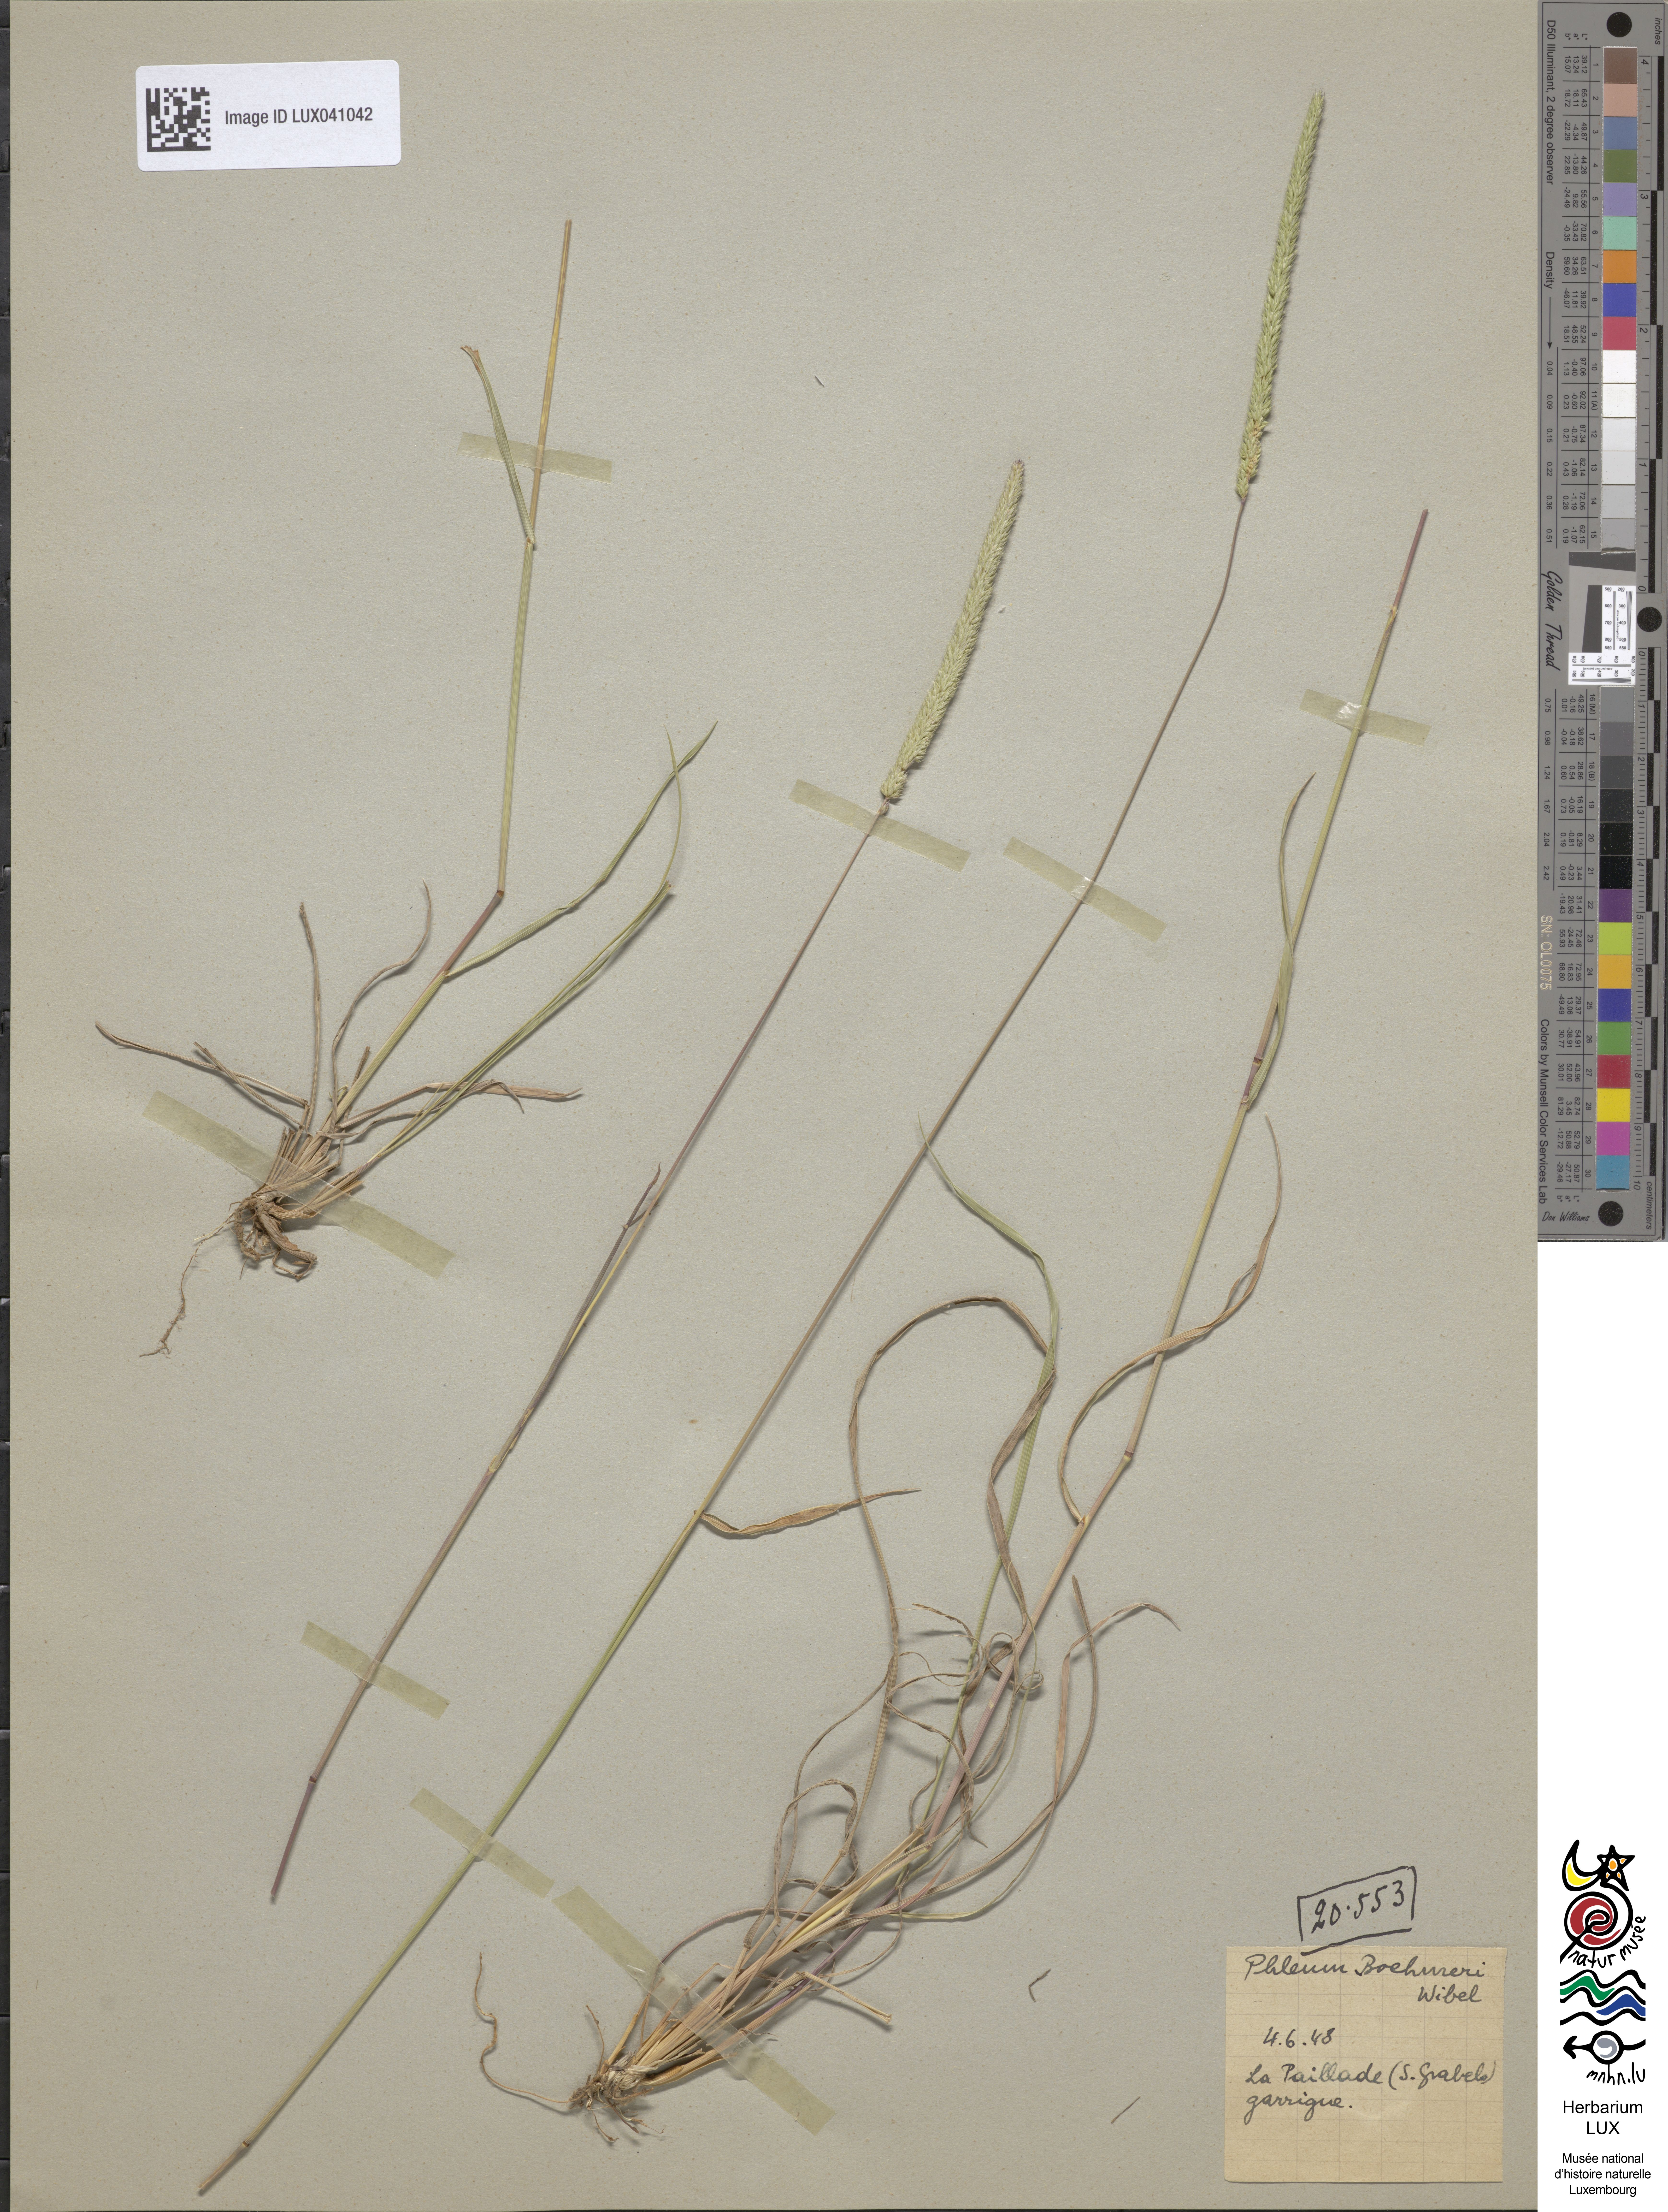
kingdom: Plantae
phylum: Tracheophyta
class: Liliopsida
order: Poales
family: Poaceae
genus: Phleum
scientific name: Phleum phleoides
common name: Purple-stem cat's-tail
